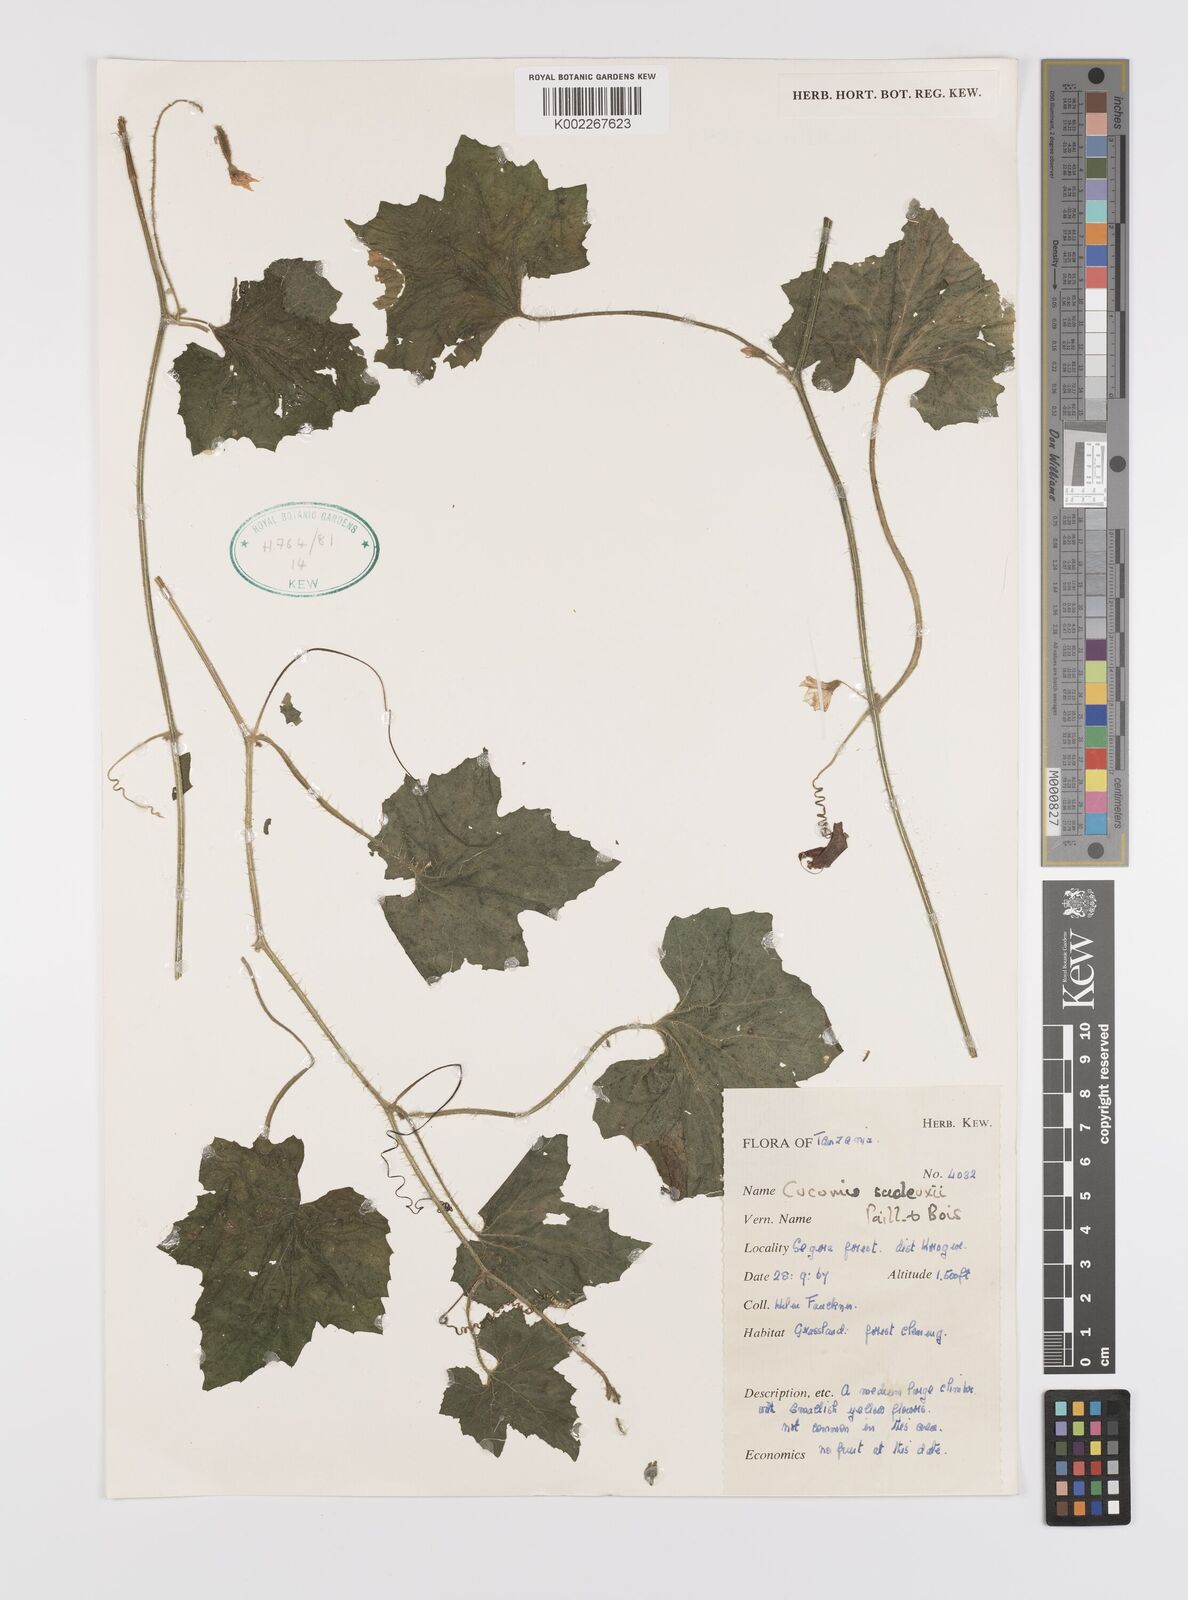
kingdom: Plantae
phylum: Tracheophyta
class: Magnoliopsida
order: Cucurbitales
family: Cucurbitaceae
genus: Cucumis
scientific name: Cucumis sacleuxii
